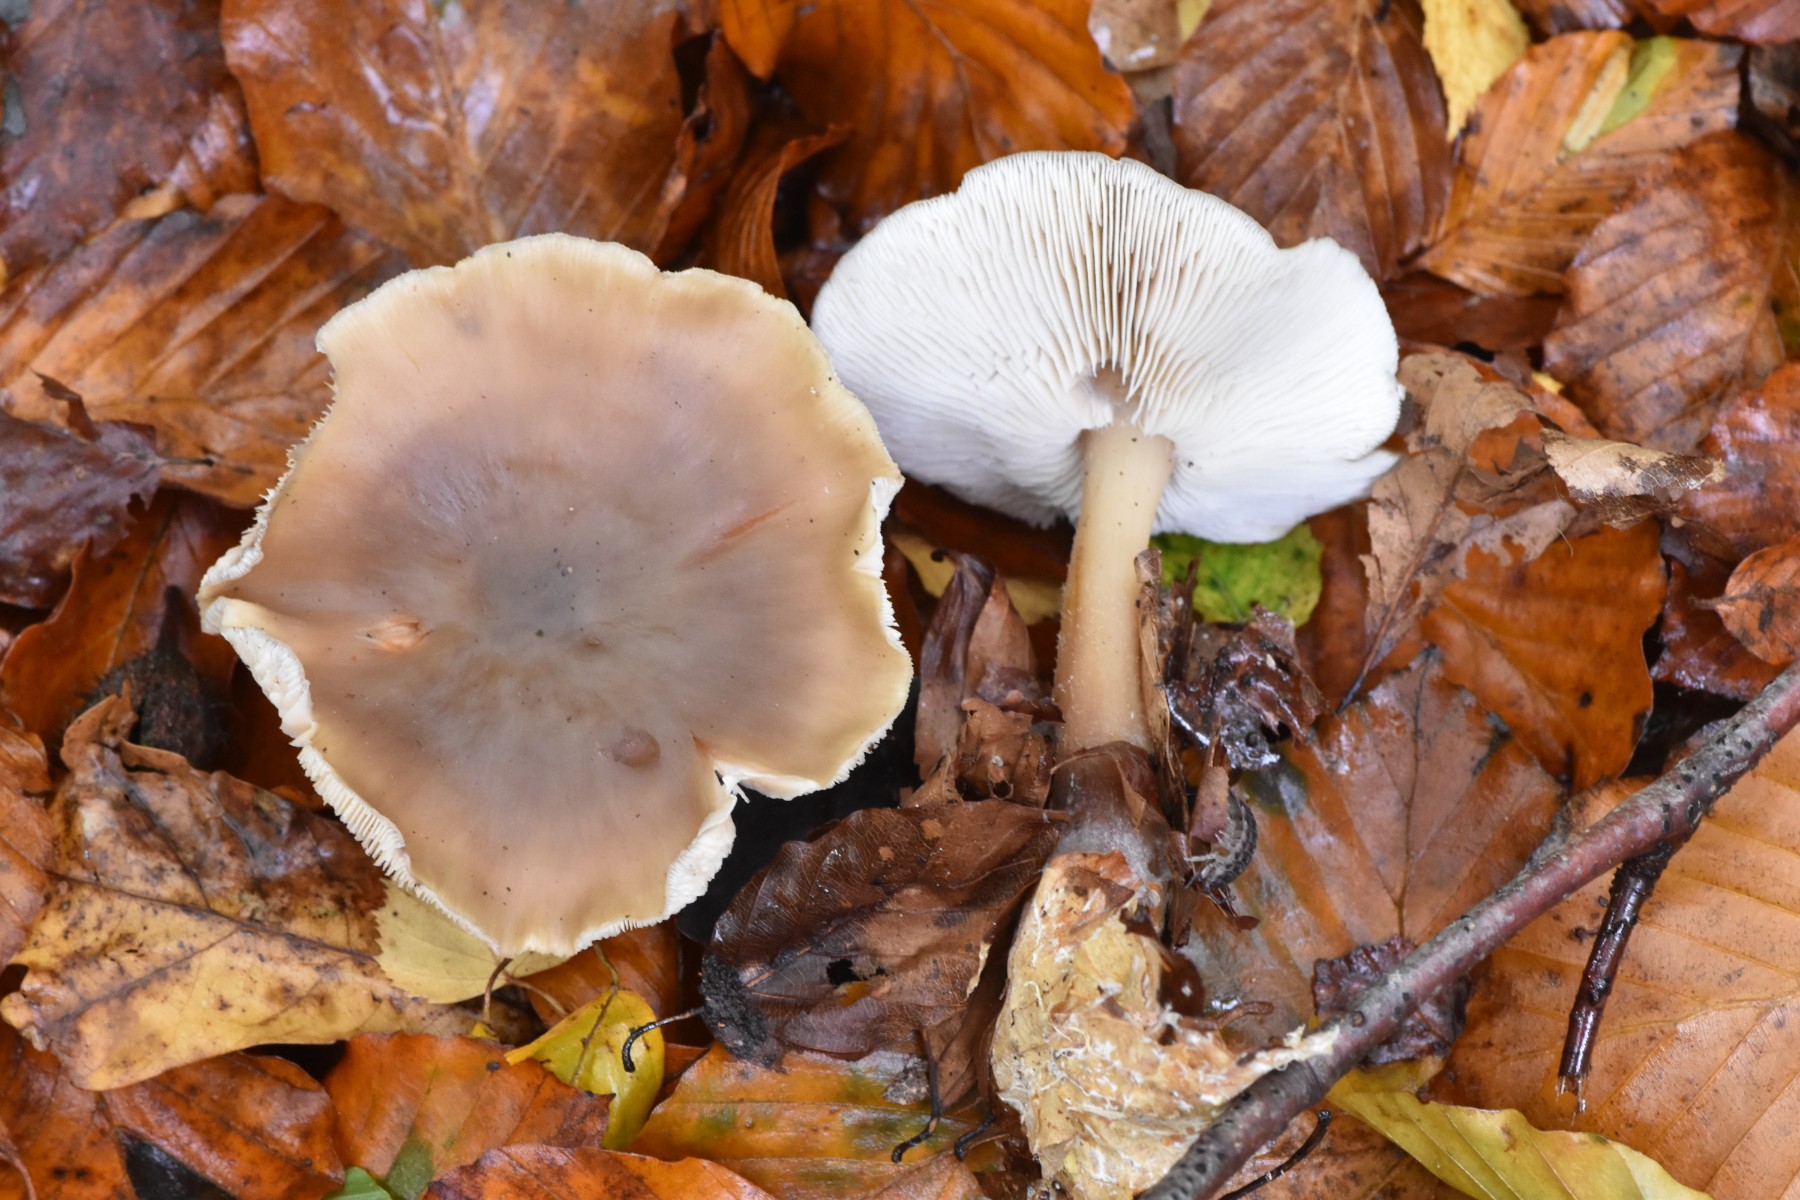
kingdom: Fungi
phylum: Basidiomycota
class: Agaricomycetes
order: Agaricales
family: Omphalotaceae
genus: Rhodocollybia
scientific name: Rhodocollybia asema
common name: horngrå fladhat
